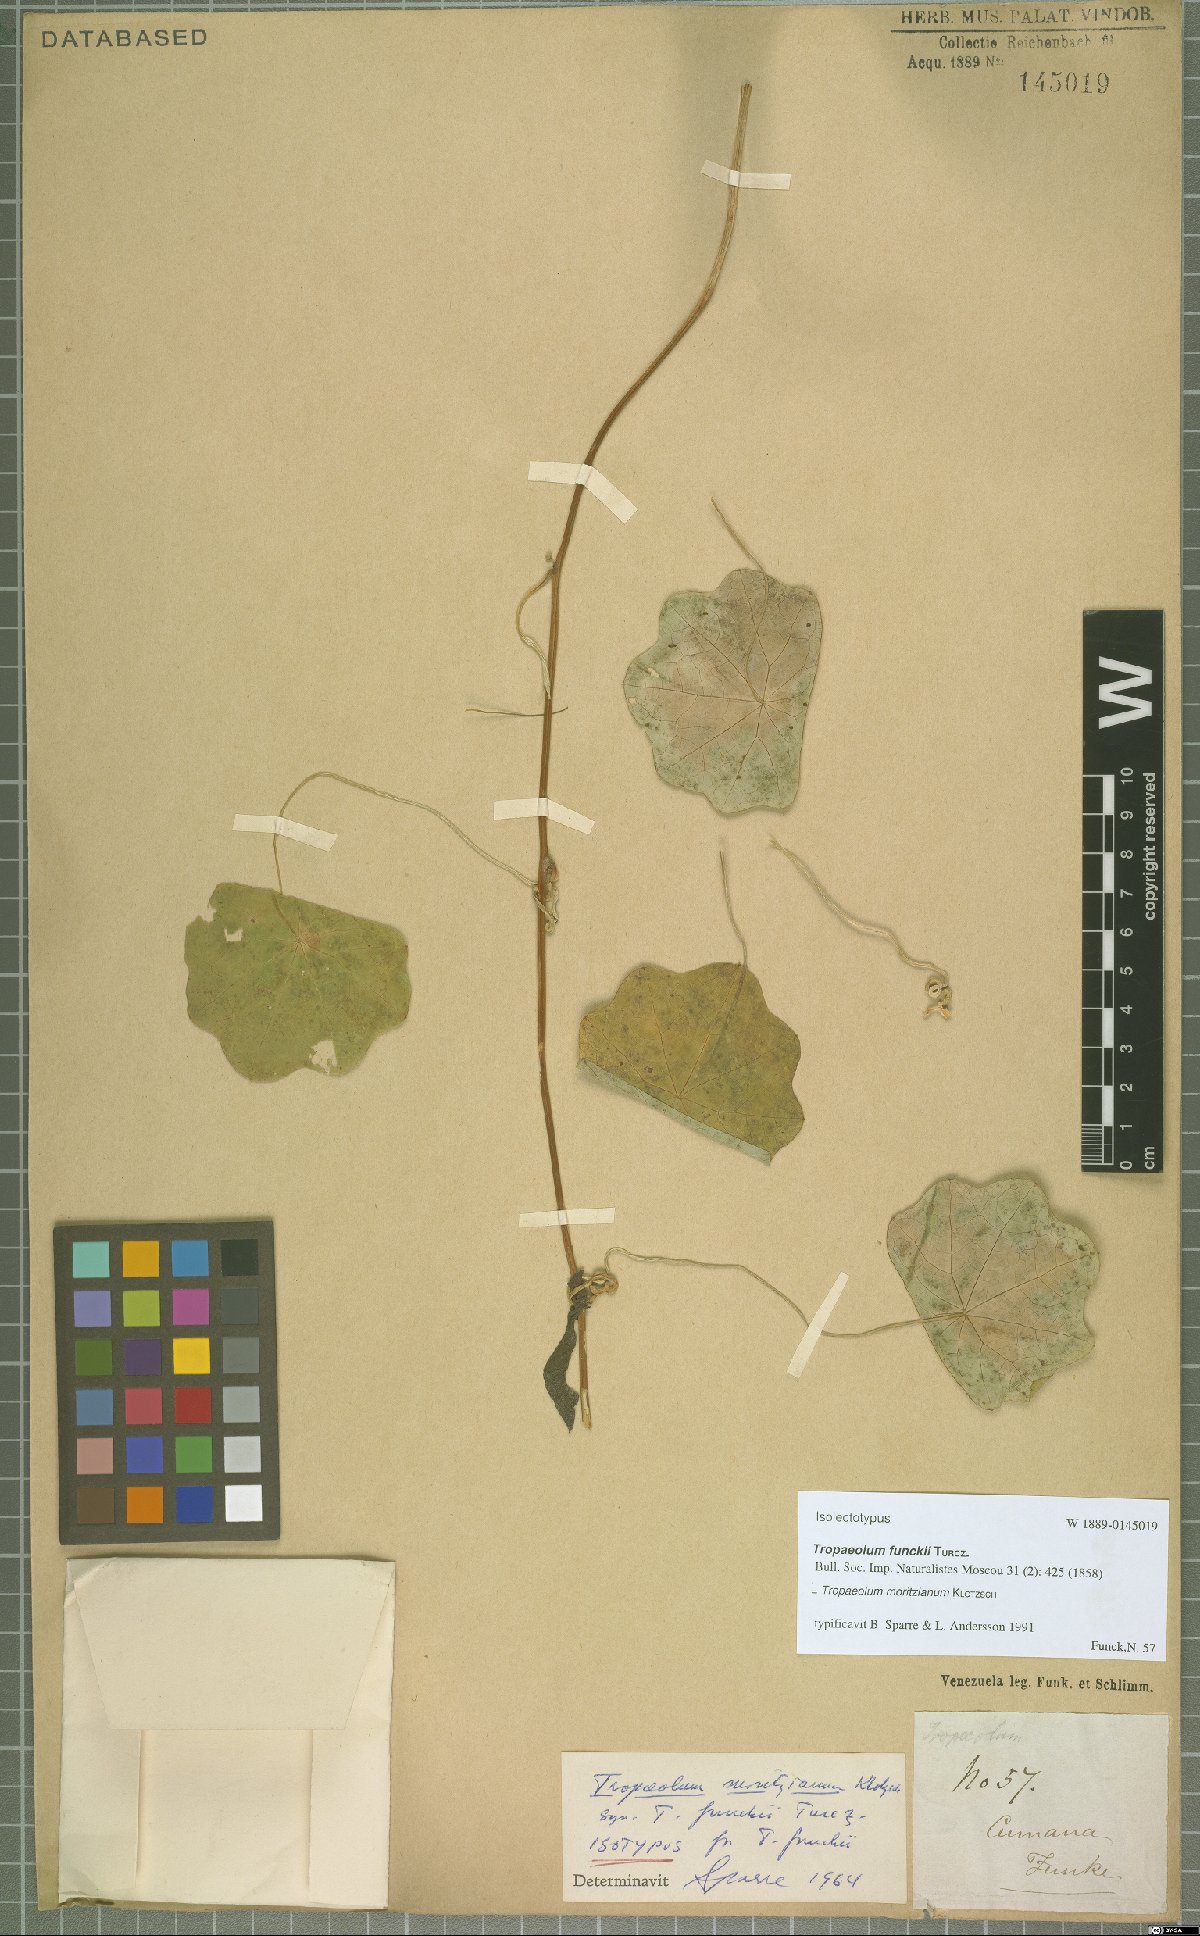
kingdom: Plantae
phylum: Tracheophyta
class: Magnoliopsida
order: Brassicales
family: Tropaeolaceae
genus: Tropaeolum
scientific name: Tropaeolum moritzianum
